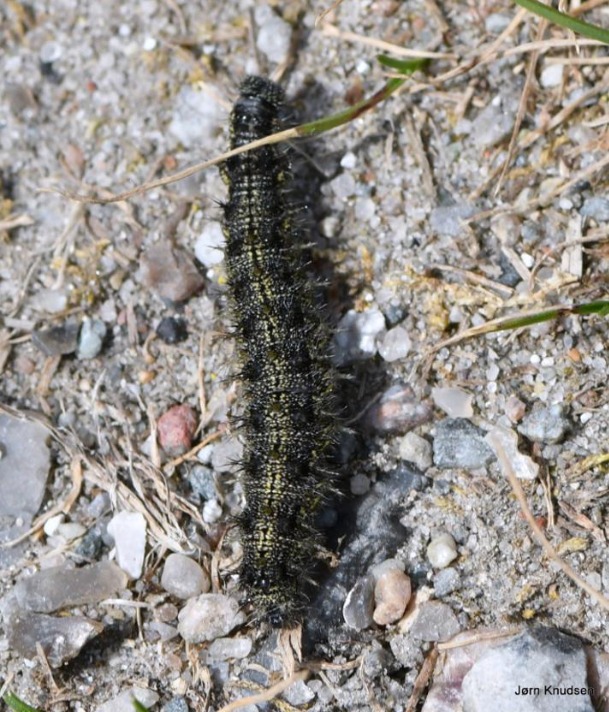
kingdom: Animalia
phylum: Arthropoda
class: Insecta
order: Lepidoptera
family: Nymphalidae
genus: Aglais
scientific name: Aglais io
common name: Dagpåfugleøje
